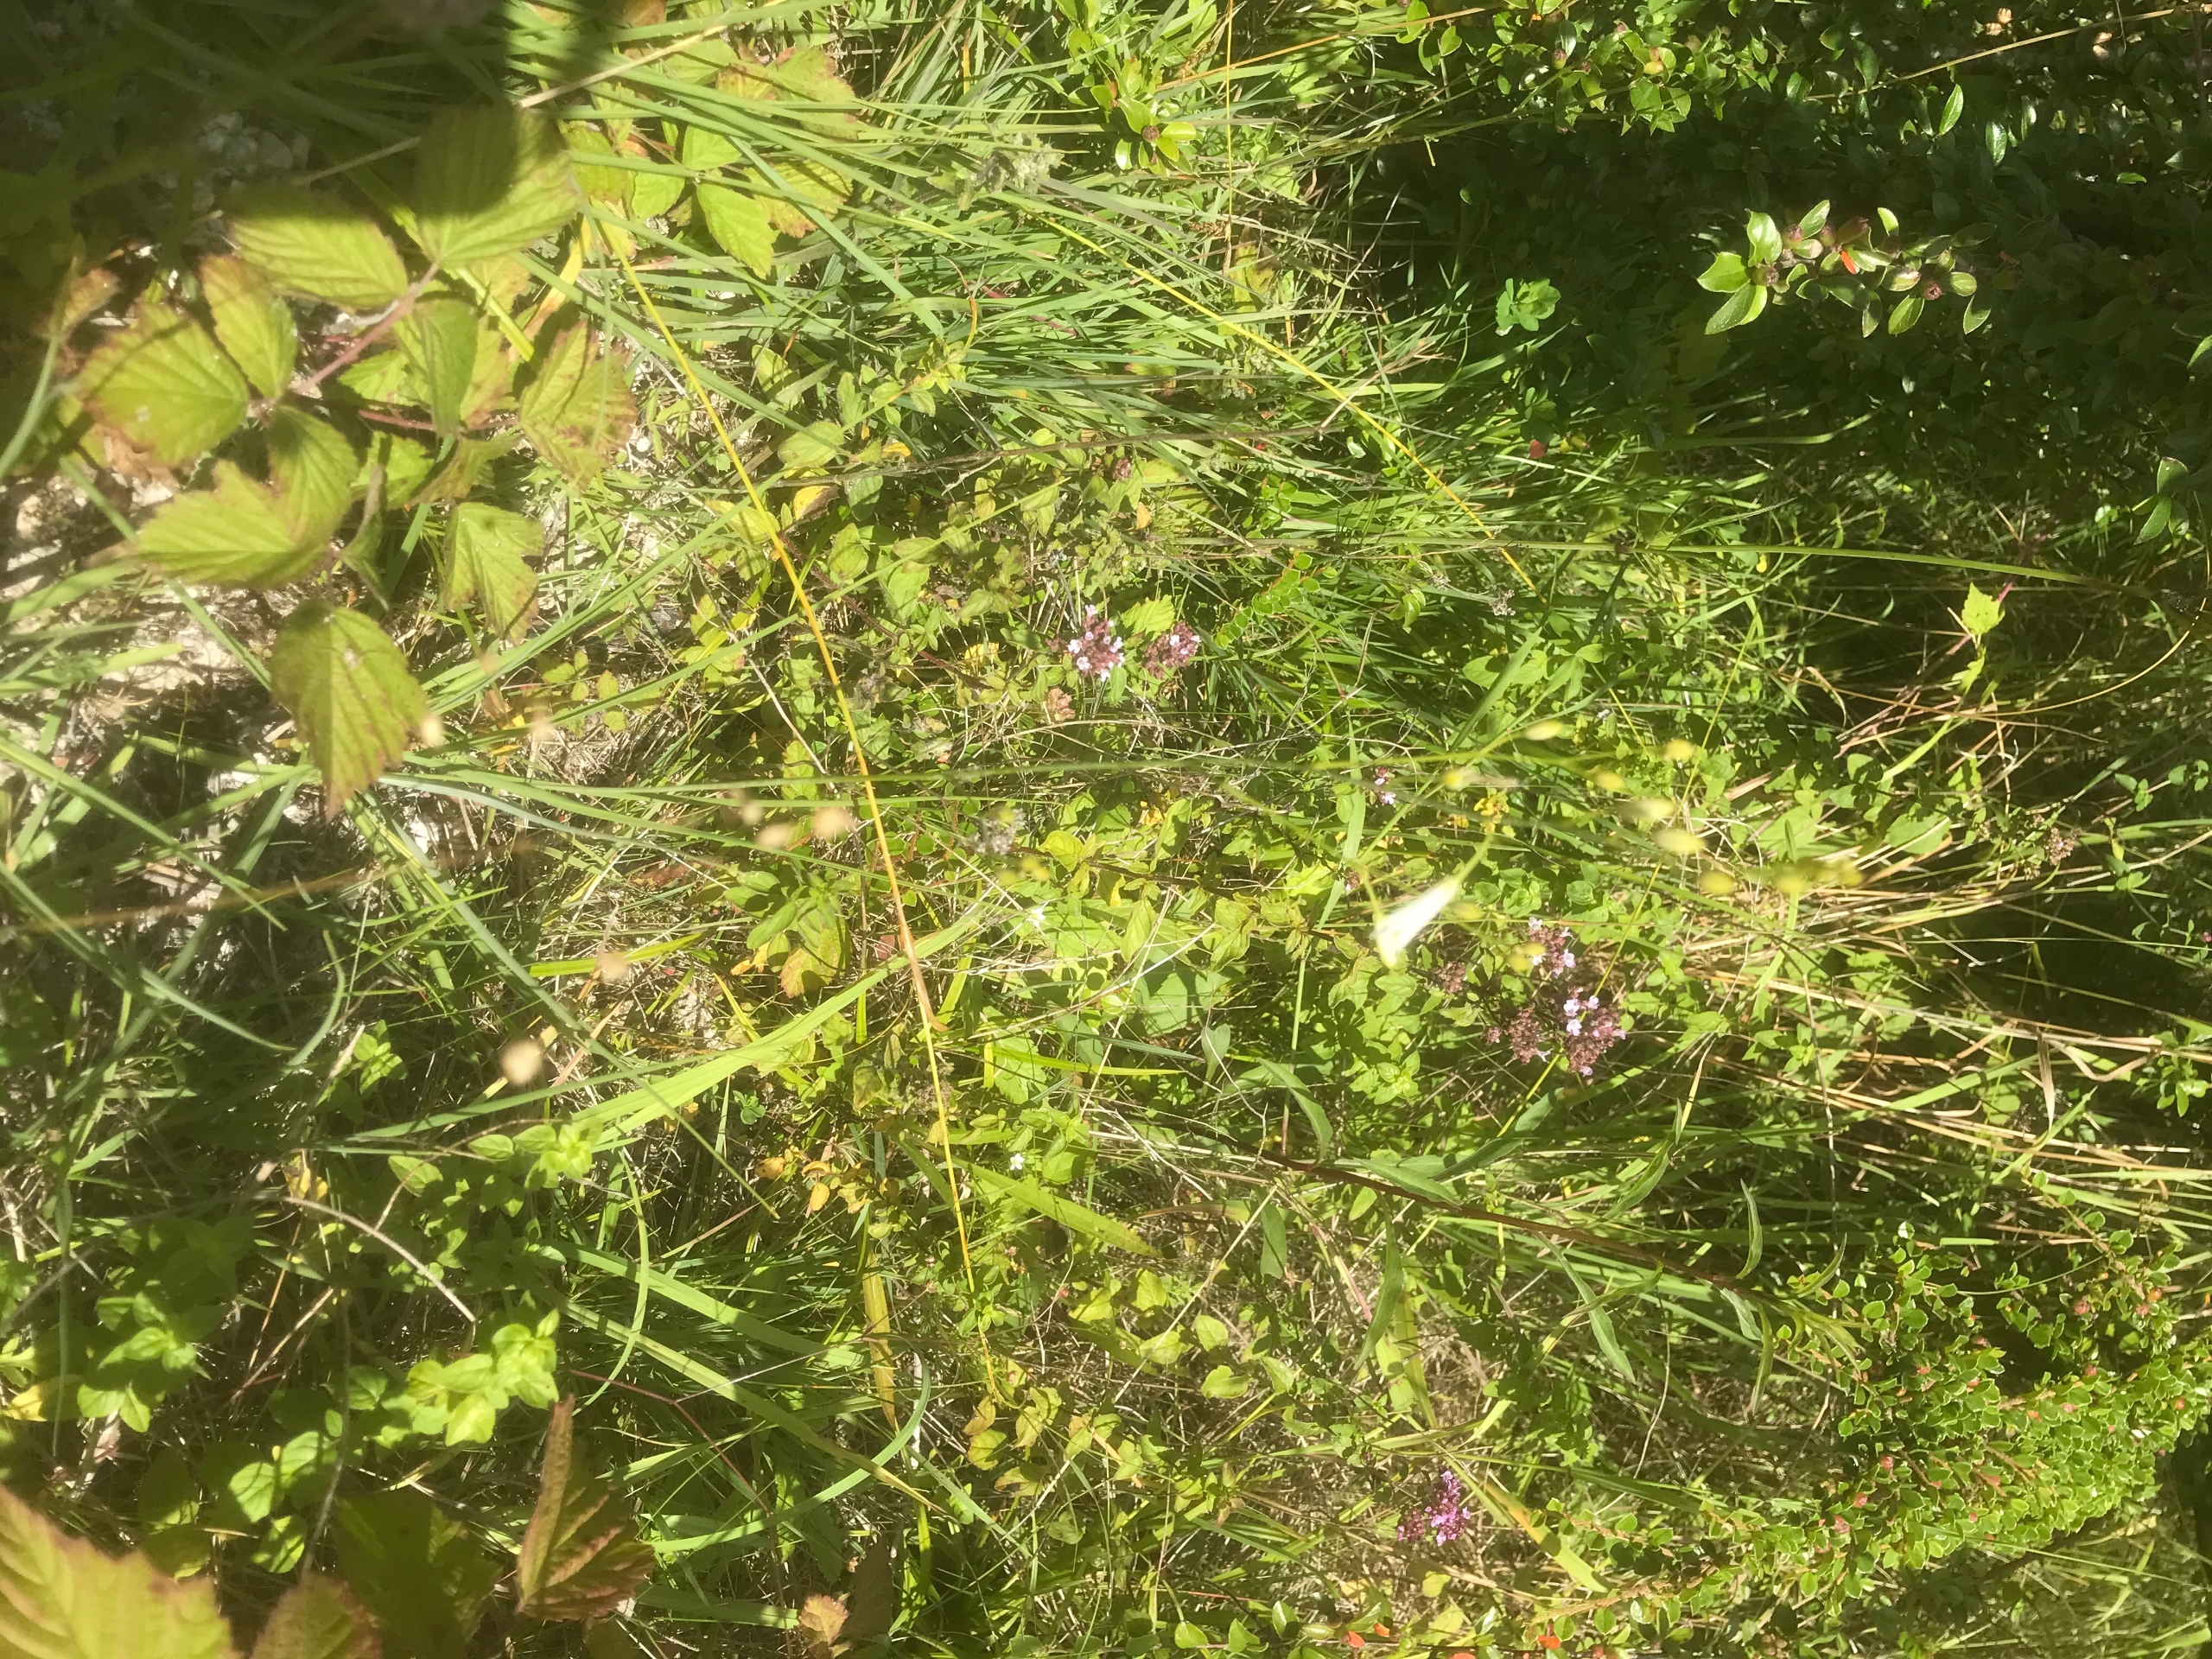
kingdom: Plantae
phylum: Tracheophyta
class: Liliopsida
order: Asparagales
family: Asparagaceae
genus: Anthericum
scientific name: Anthericum ramosum
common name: Grenet edderkopurt
